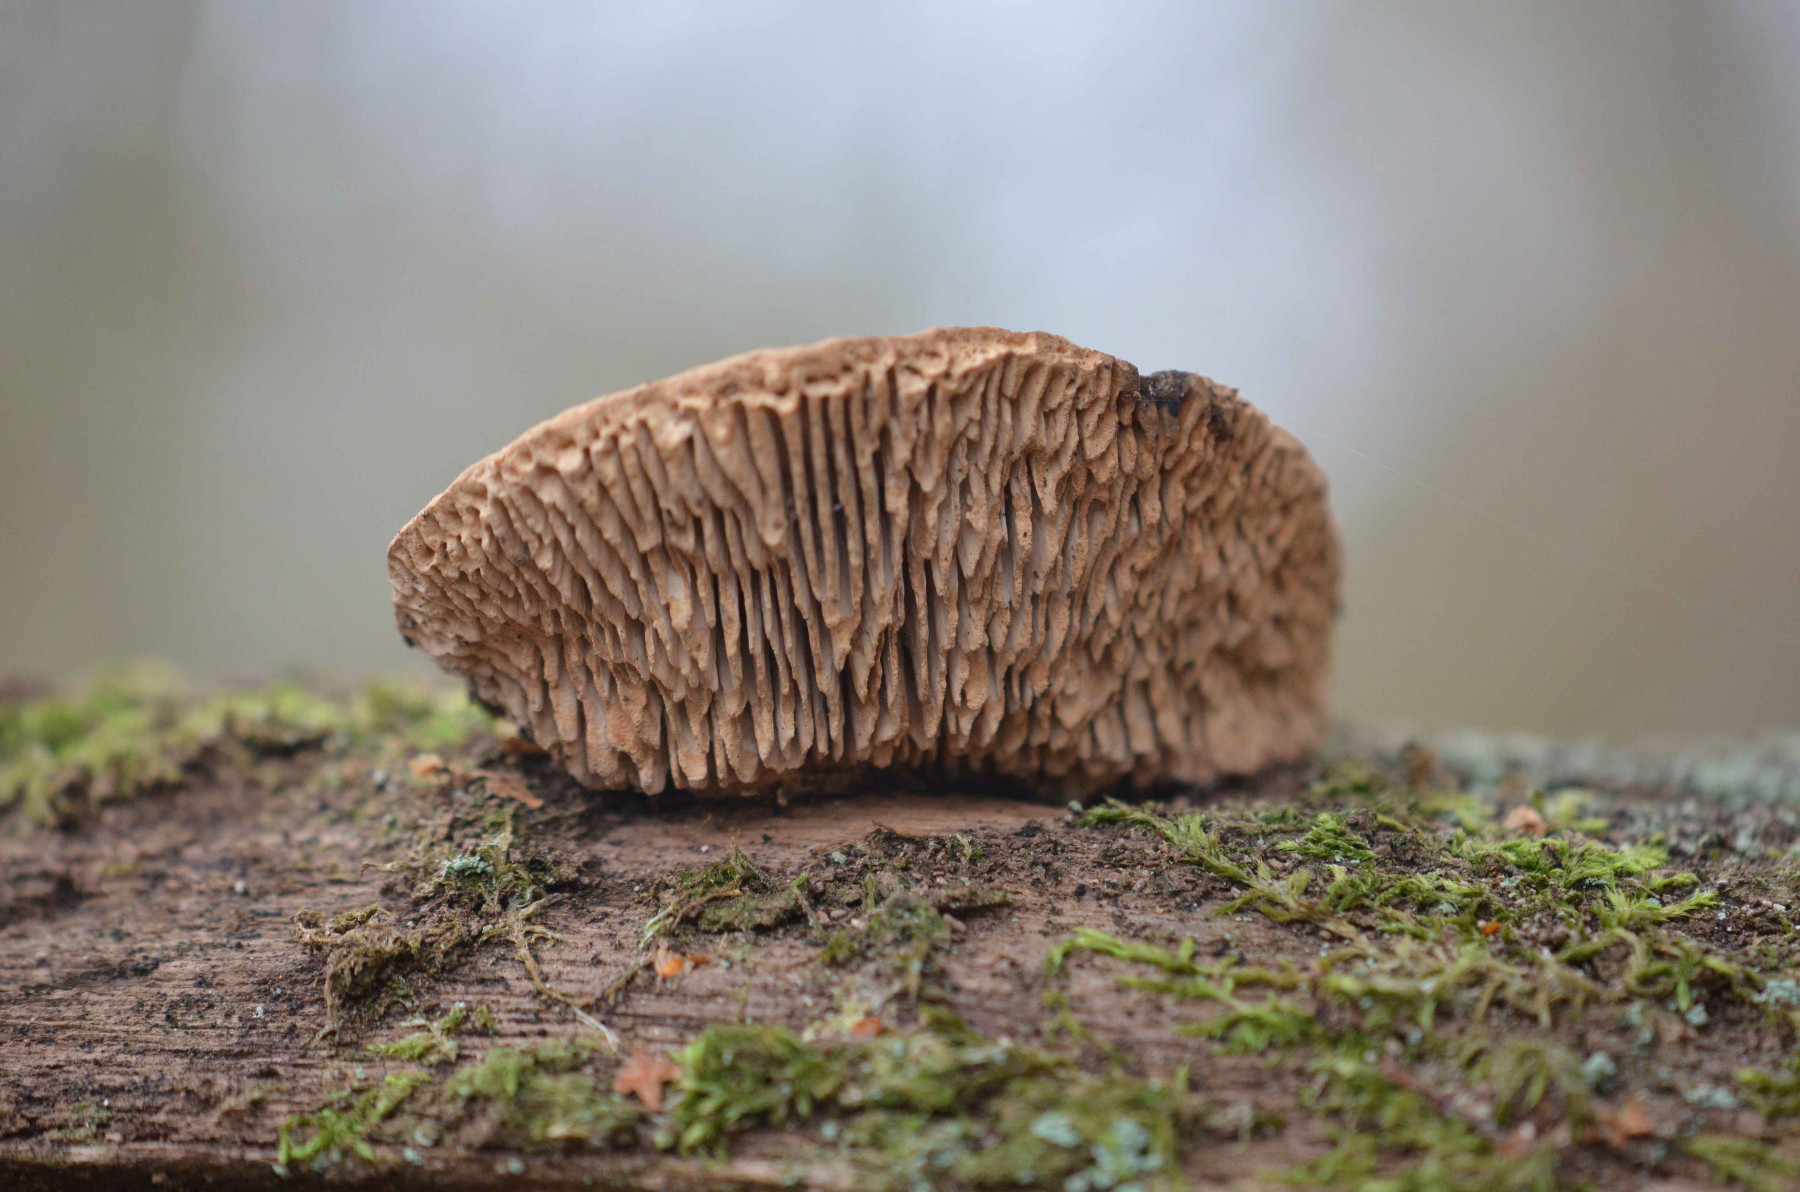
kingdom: Fungi
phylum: Basidiomycota
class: Agaricomycetes
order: Polyporales
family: Fomitopsidaceae
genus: Daedalea
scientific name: Daedalea quercina
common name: ege-labyrintsvamp
